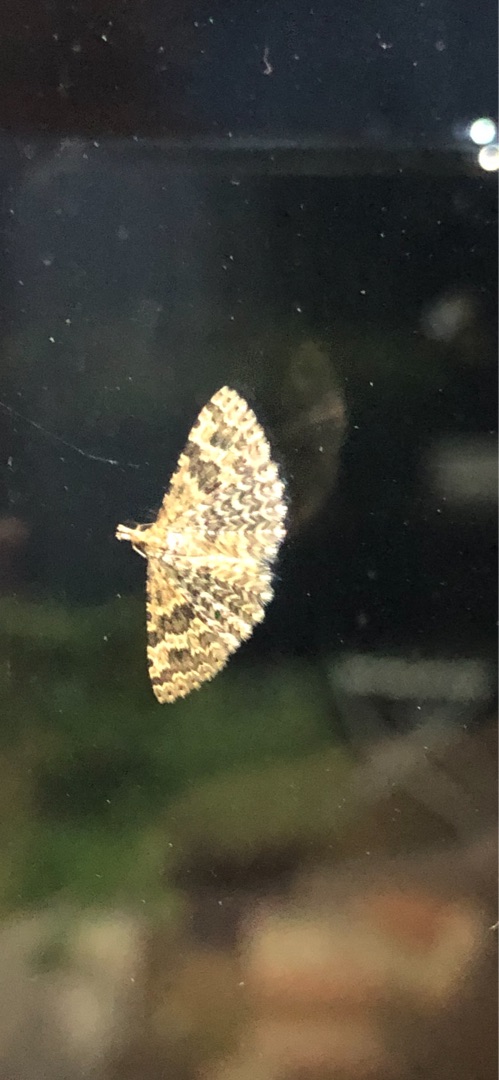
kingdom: Animalia
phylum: Arthropoda
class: Insecta
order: Lepidoptera
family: Alucitidae
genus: Alucita
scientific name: Alucita hexadactyla
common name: Kaprifoliefjermøl
